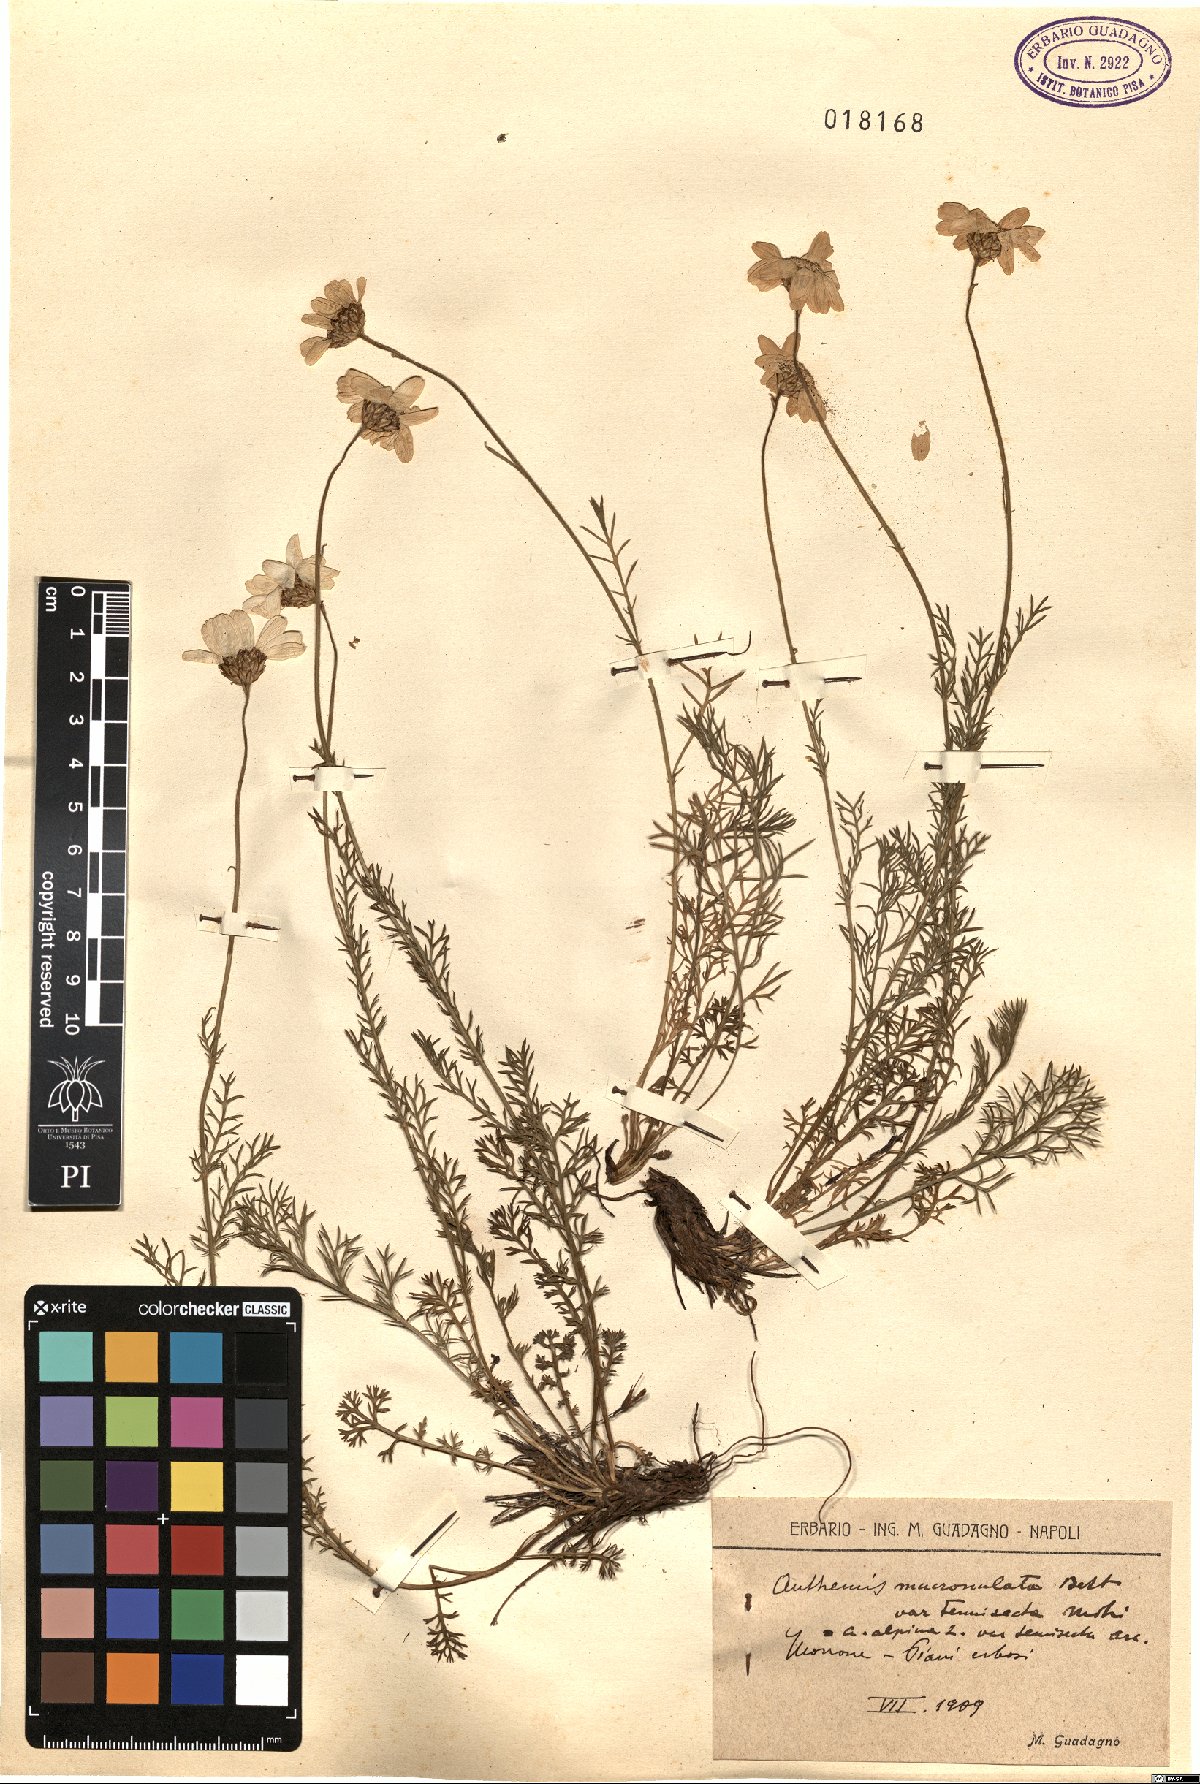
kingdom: Plantae
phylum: Tracheophyta
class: Magnoliopsida
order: Asterales
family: Asteraceae
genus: Achillea
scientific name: Achillea barrelieri
